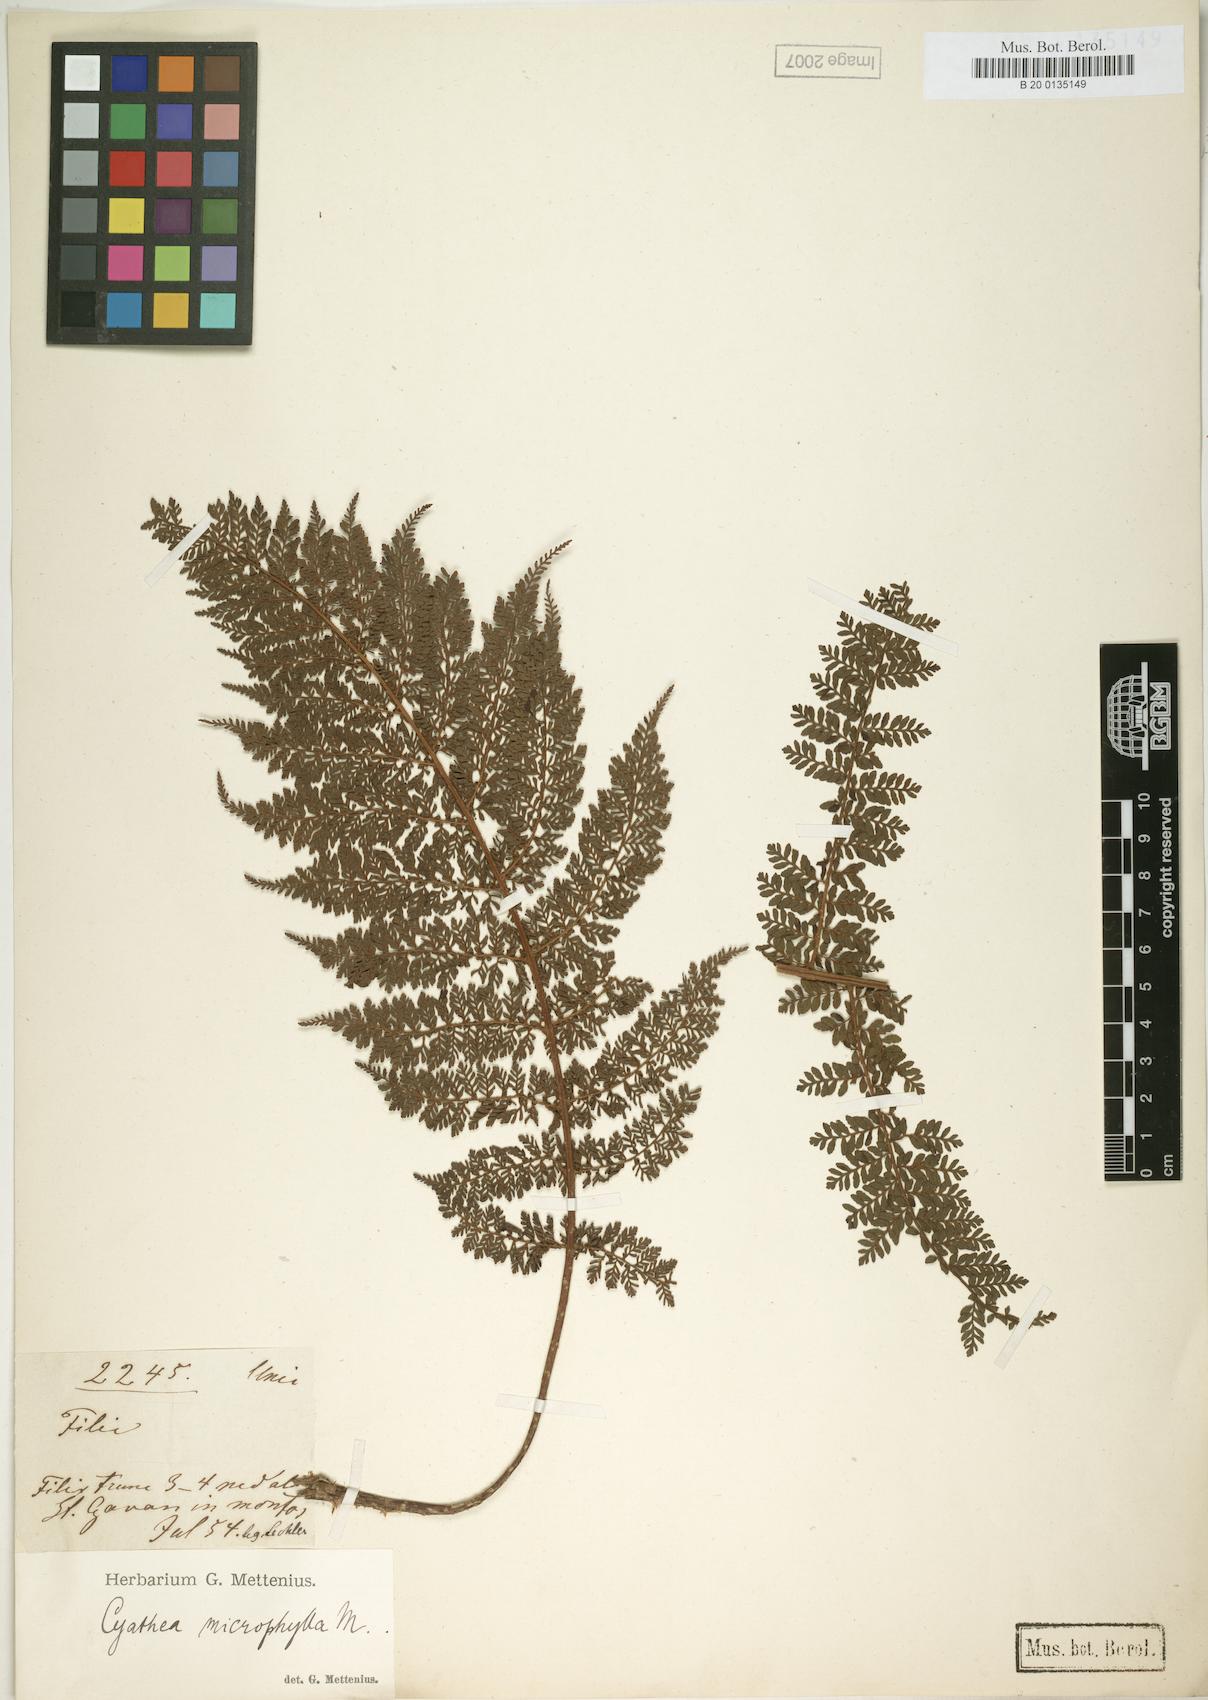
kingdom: Plantae
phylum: Tracheophyta
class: Polypodiopsida
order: Cyatheales
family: Cyatheaceae
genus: Cyathea
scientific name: Cyathea microphylla
